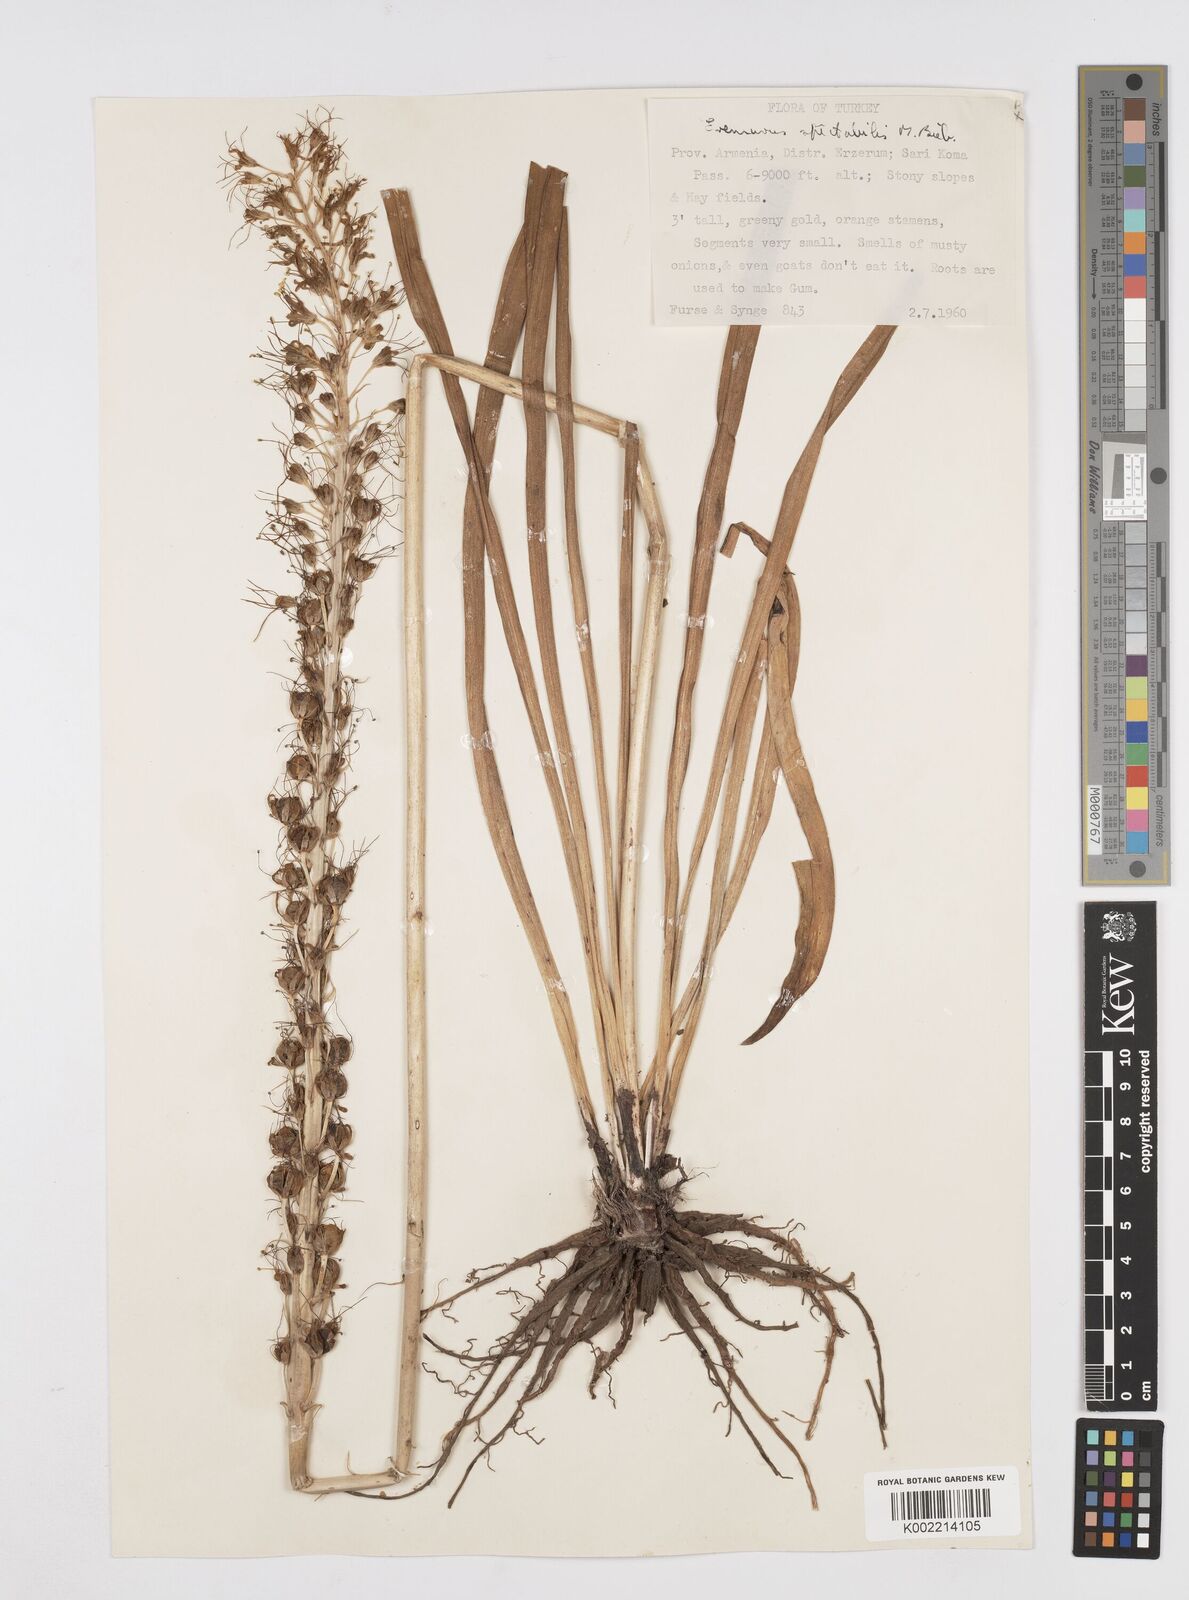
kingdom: Plantae
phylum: Tracheophyta
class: Liliopsida
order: Asparagales
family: Asphodelaceae
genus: Eremurus
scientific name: Eremurus spectabilis
